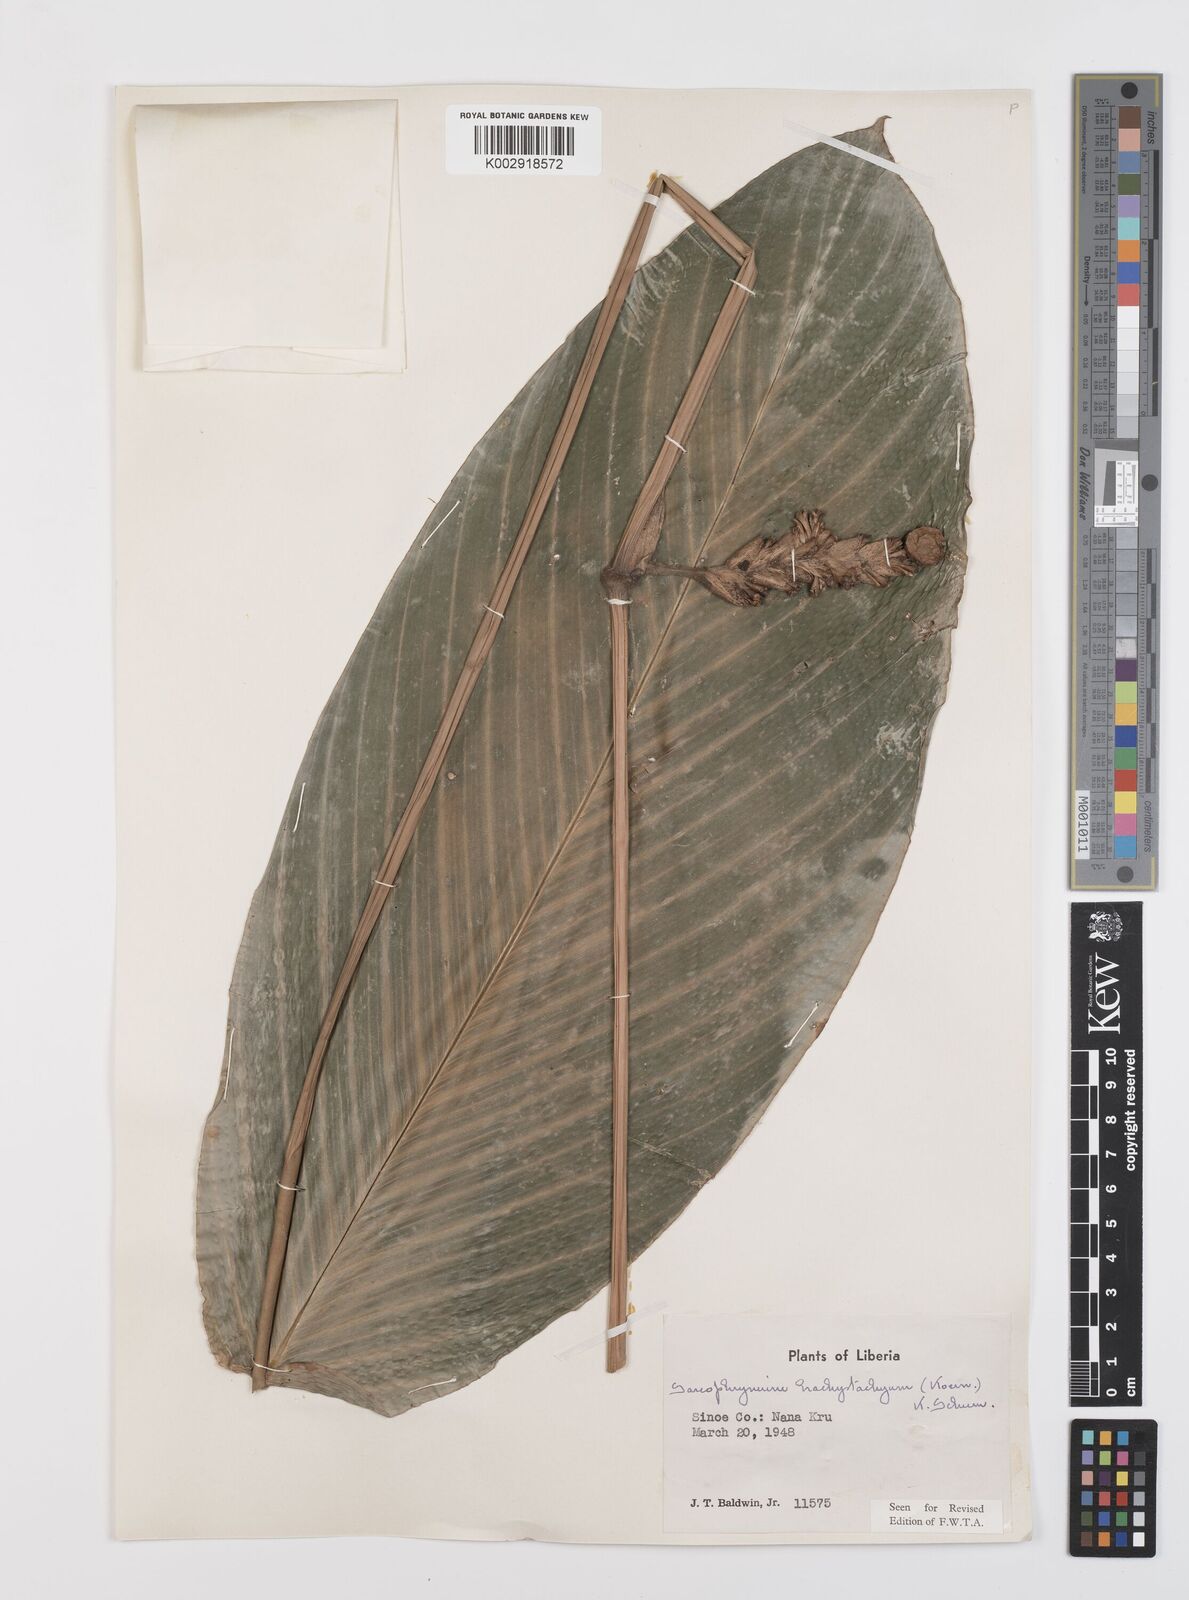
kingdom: Plantae
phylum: Tracheophyta
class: Liliopsida
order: Zingiberales
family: Marantaceae
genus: Sarcophrynium
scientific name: Sarcophrynium brachystachyum
